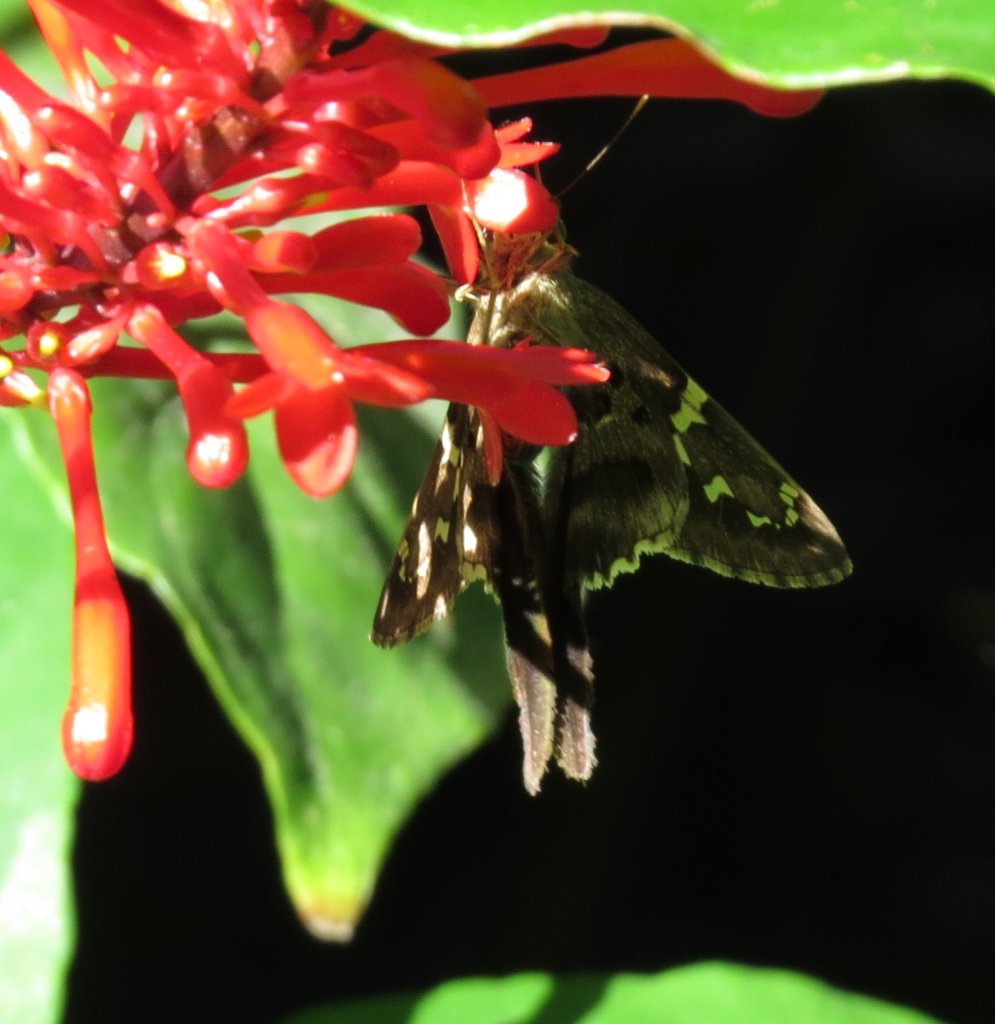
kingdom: Animalia
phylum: Arthropoda
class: Insecta
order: Lepidoptera
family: Hesperiidae
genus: Urbanus
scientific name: Urbanus proteus
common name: Long-tailed Skipper
